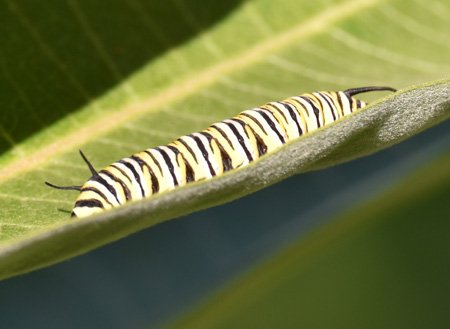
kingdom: Animalia
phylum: Arthropoda
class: Insecta
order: Lepidoptera
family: Nymphalidae
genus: Danaus
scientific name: Danaus plexippus
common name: Monarch
